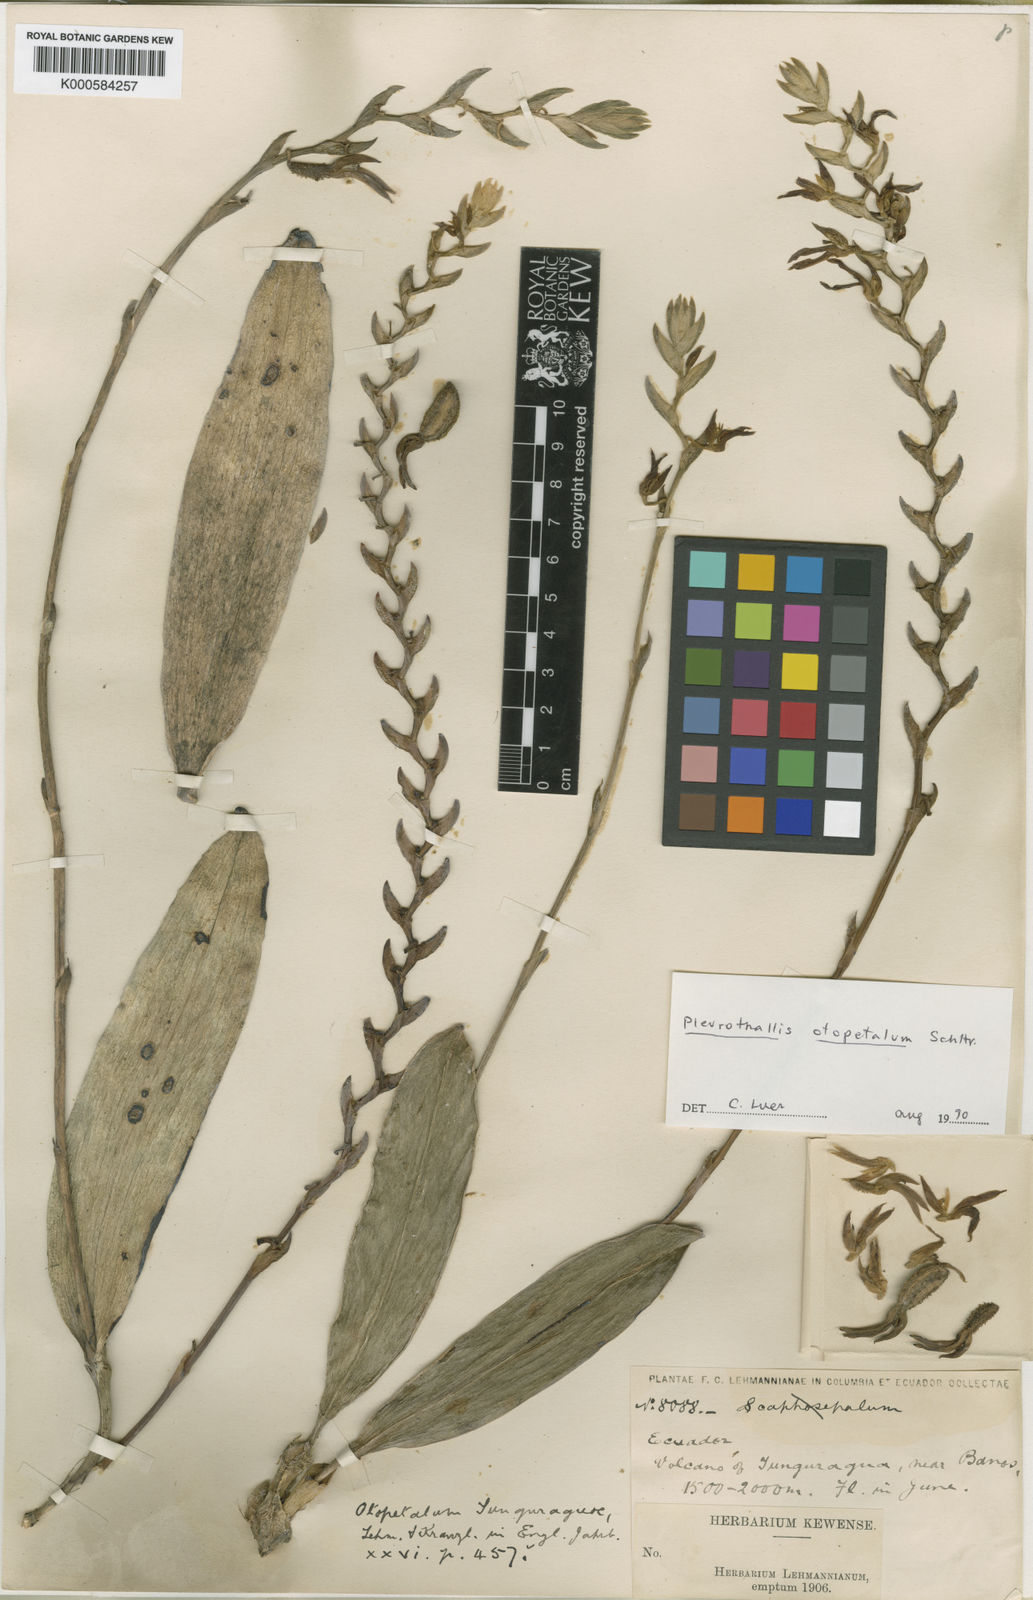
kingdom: Plantae
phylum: Tracheophyta
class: Liliopsida
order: Asparagales
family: Orchidaceae
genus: Acianthera
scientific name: Acianthera tunguraguae
